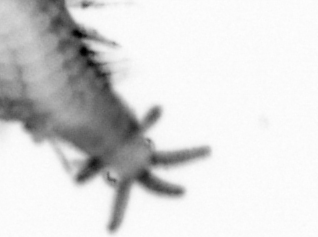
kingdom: Animalia
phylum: Annelida
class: Polychaeta
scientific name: Polychaeta
